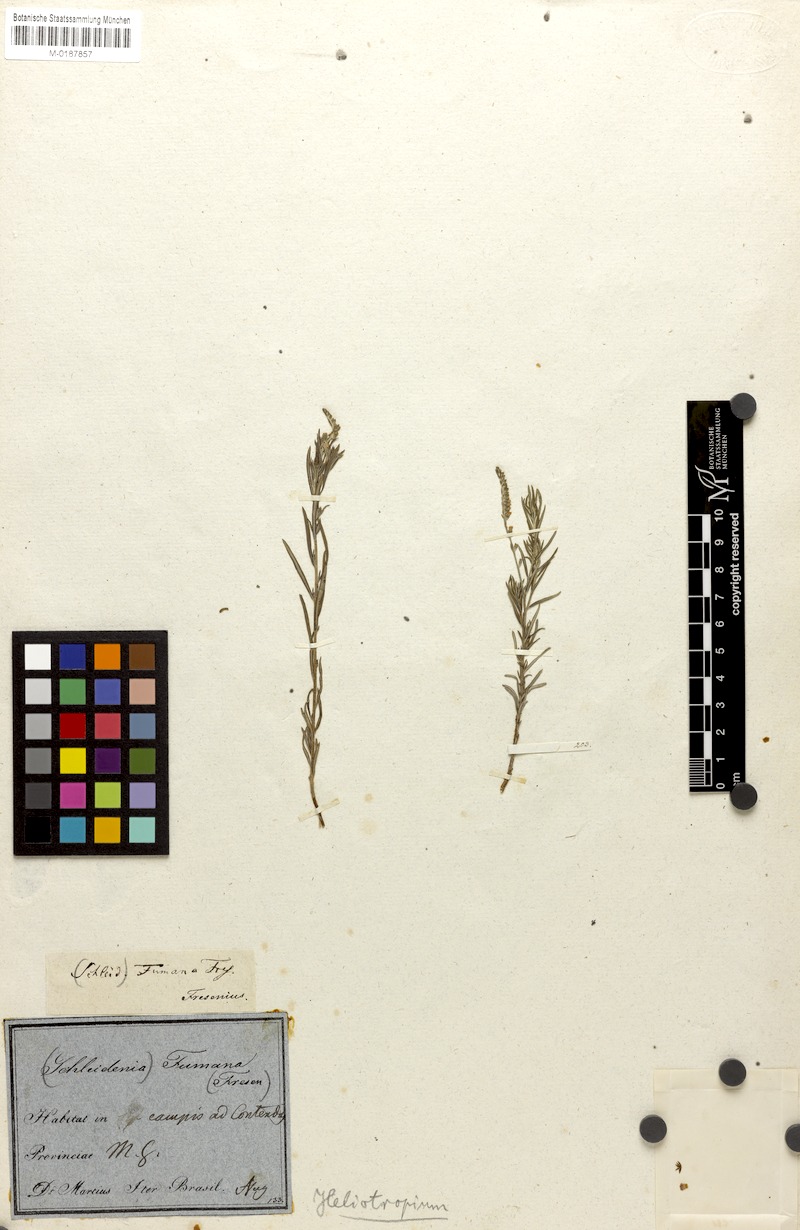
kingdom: Plantae
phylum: Tracheophyta
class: Magnoliopsida
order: Boraginales
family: Heliotropiaceae
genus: Euploca
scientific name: Euploca humilis
